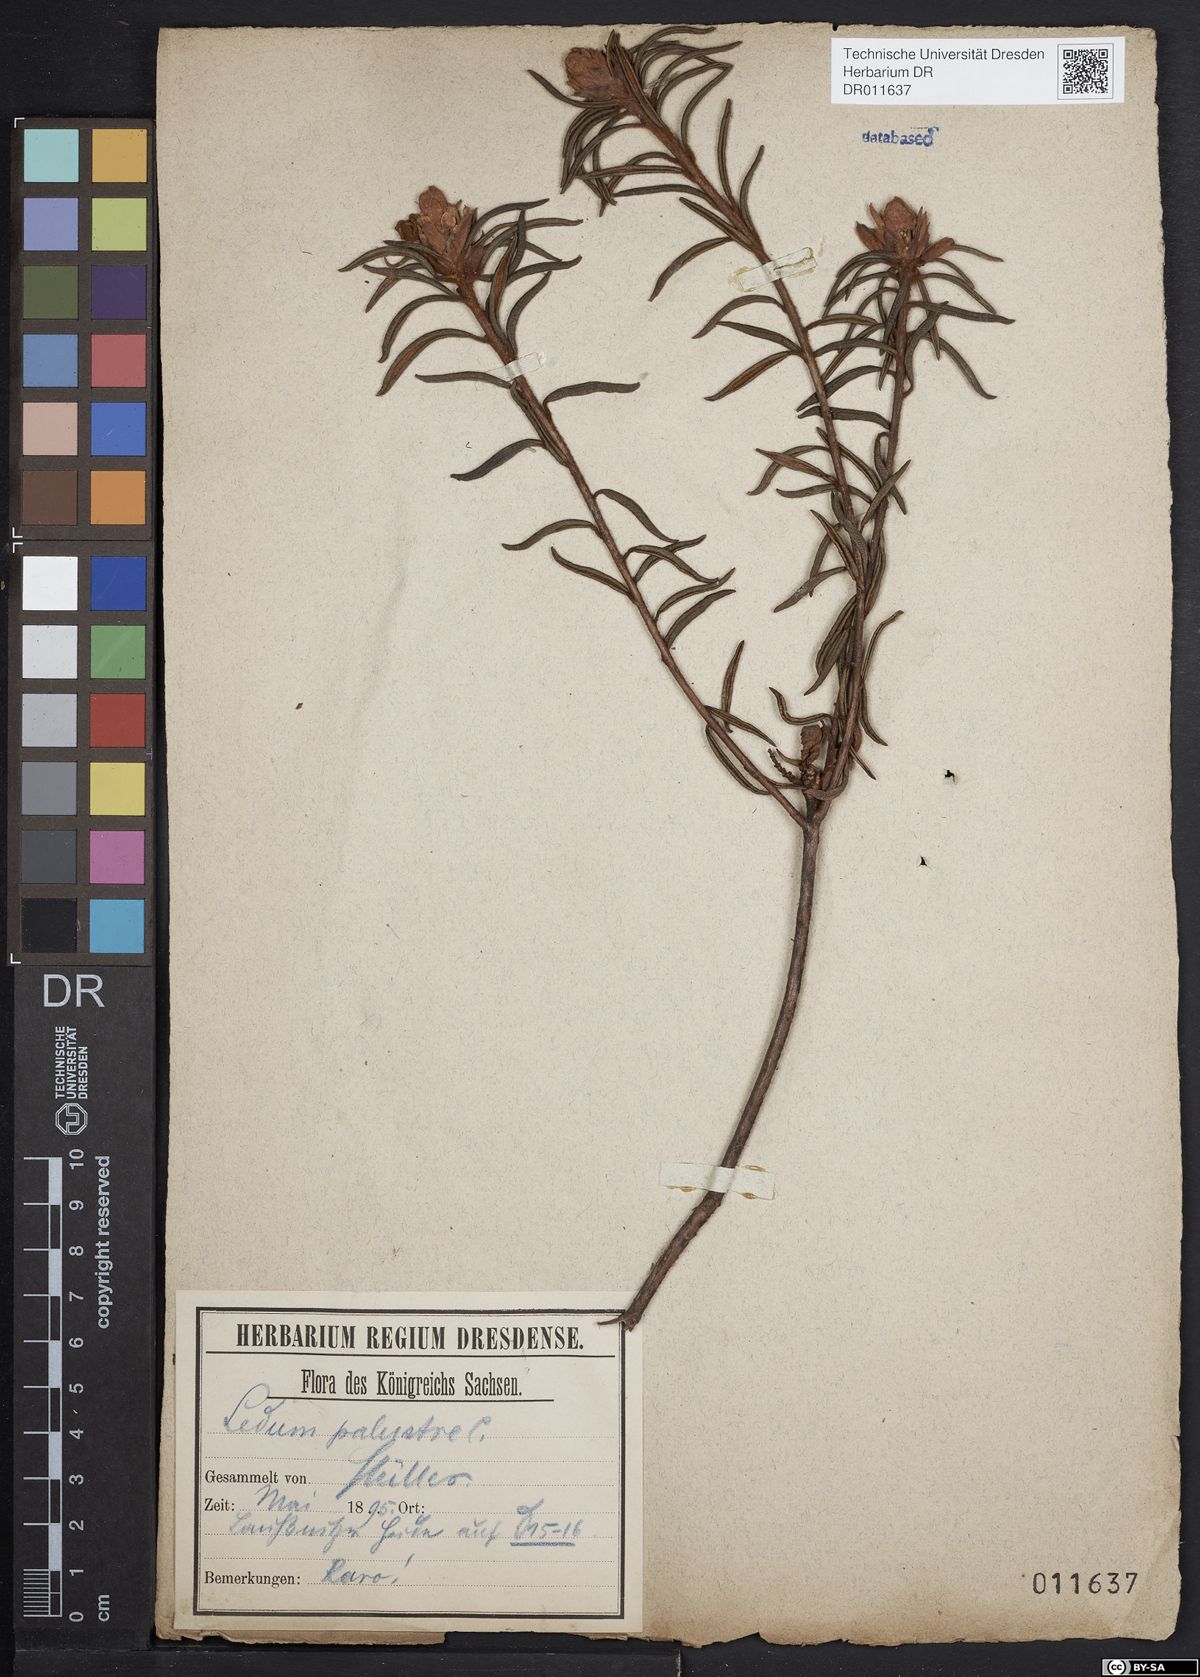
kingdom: Plantae
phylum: Tracheophyta
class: Magnoliopsida
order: Ericales
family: Ericaceae
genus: Rhododendron
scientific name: Rhododendron tomentosum
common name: Marsh labrador tea
